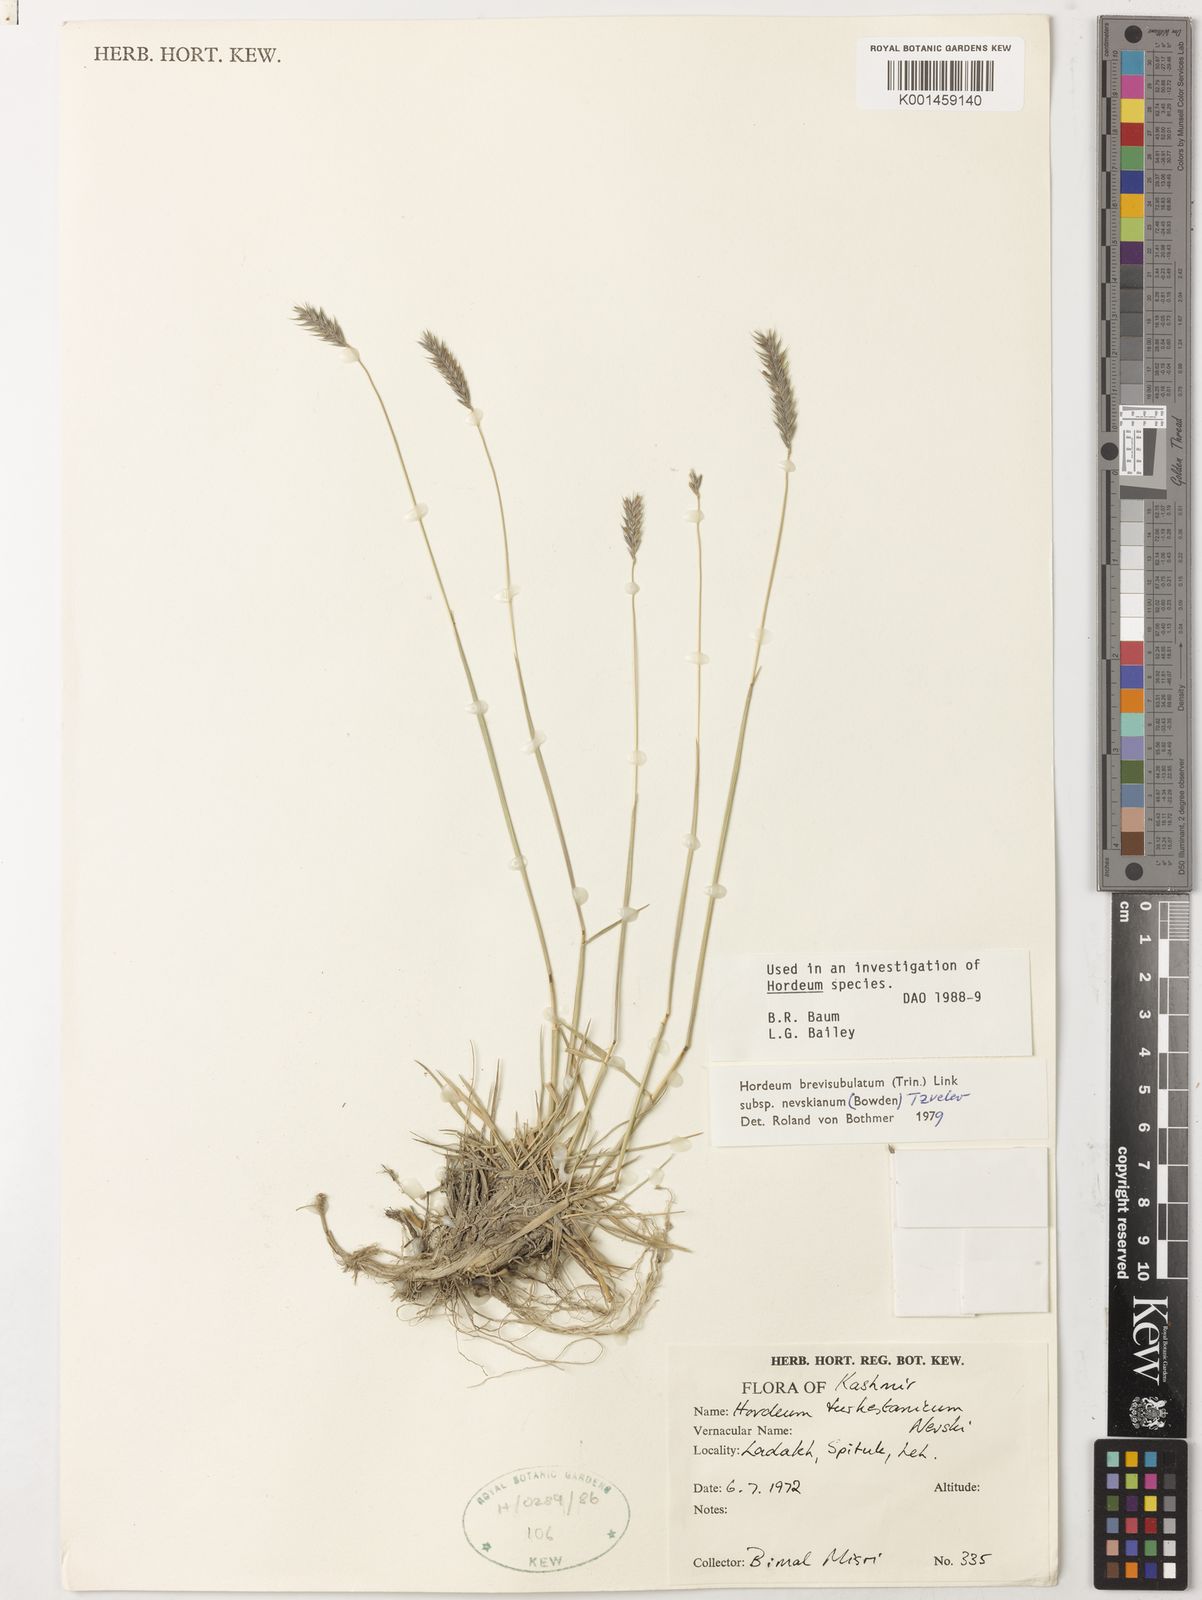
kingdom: Plantae
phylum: Tracheophyta
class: Liliopsida
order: Poales
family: Poaceae
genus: Hordeum
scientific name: Hordeum brevisubulatum
